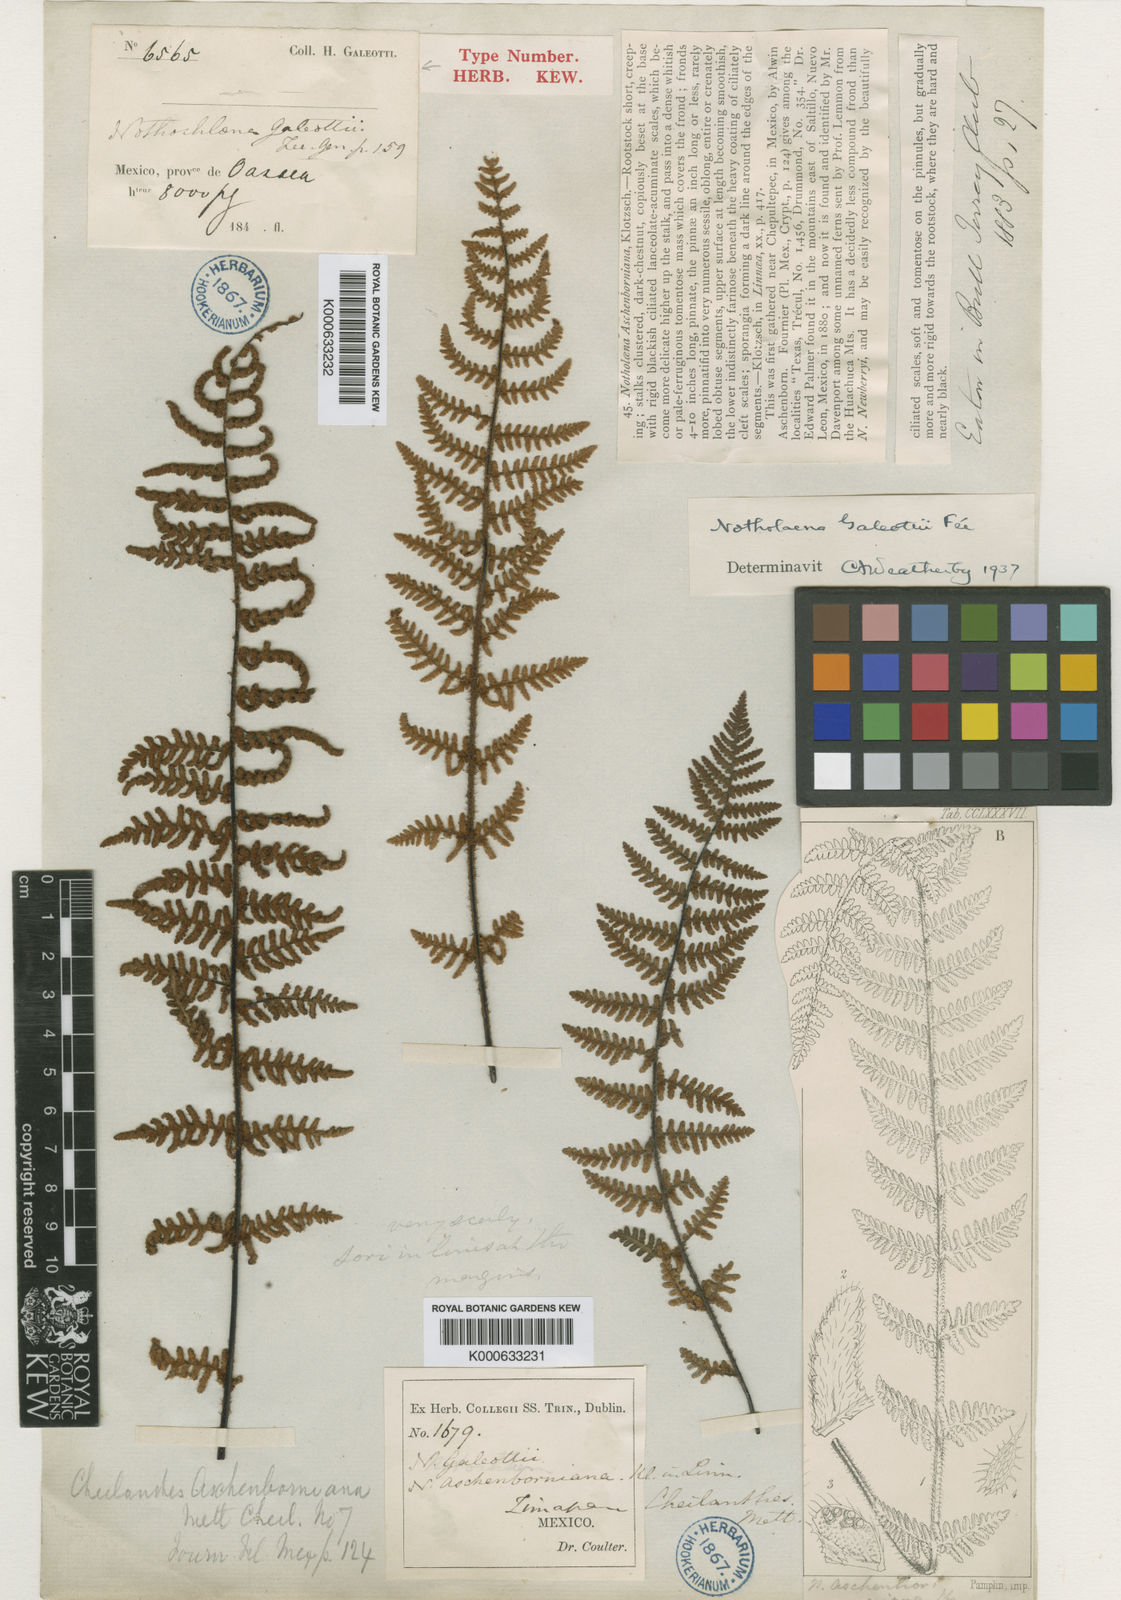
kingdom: Plantae
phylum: Tracheophyta
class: Polypodiopsida
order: Polypodiales
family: Pteridaceae
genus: Notholaena
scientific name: Notholaena aschenborniana
